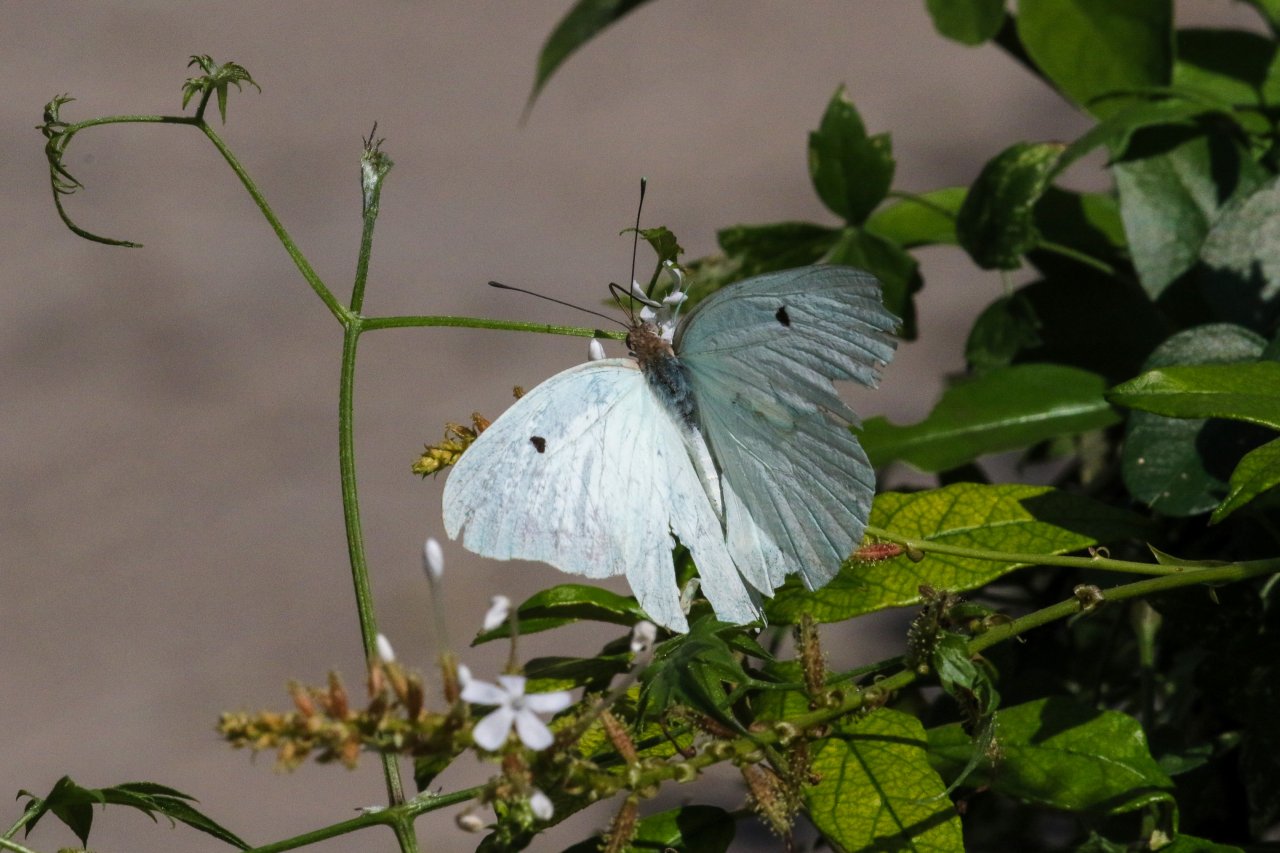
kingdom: Animalia
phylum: Arthropoda
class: Insecta
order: Lepidoptera
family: Pieridae
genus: Ganyra
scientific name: Ganyra josephina
